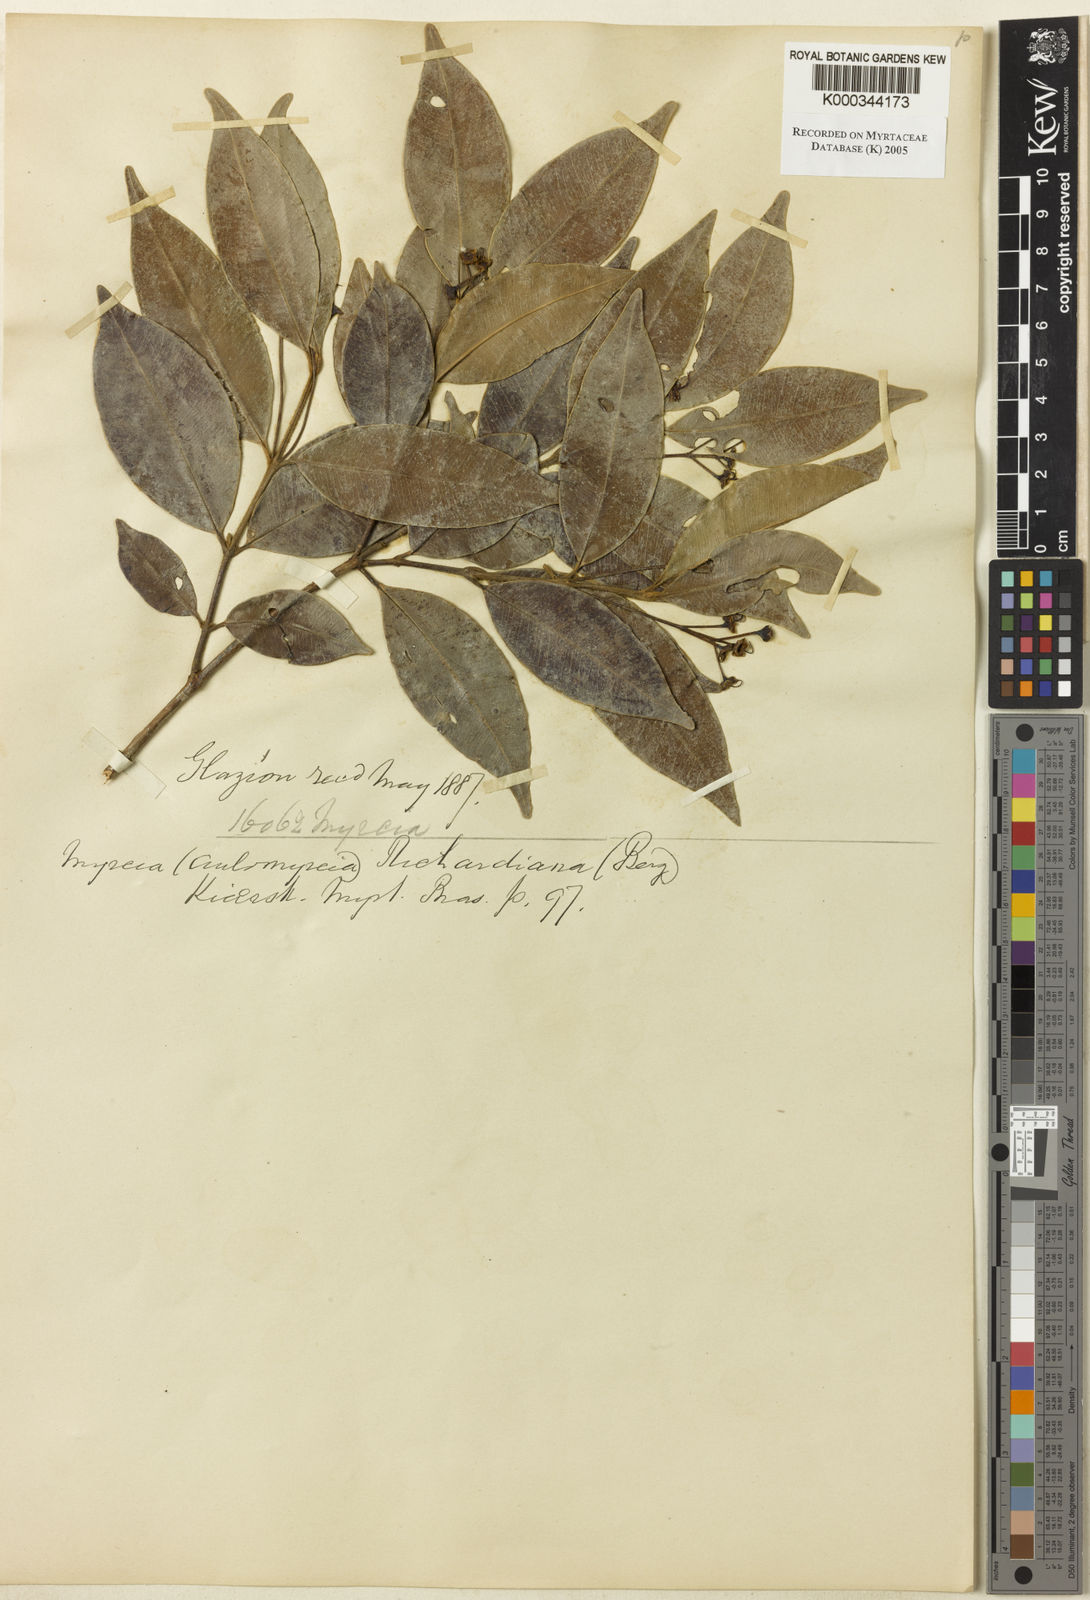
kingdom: Plantae
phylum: Tracheophyta
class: Magnoliopsida
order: Myrtales
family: Myrtaceae
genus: Myrcia
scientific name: Myrcia richardiana
